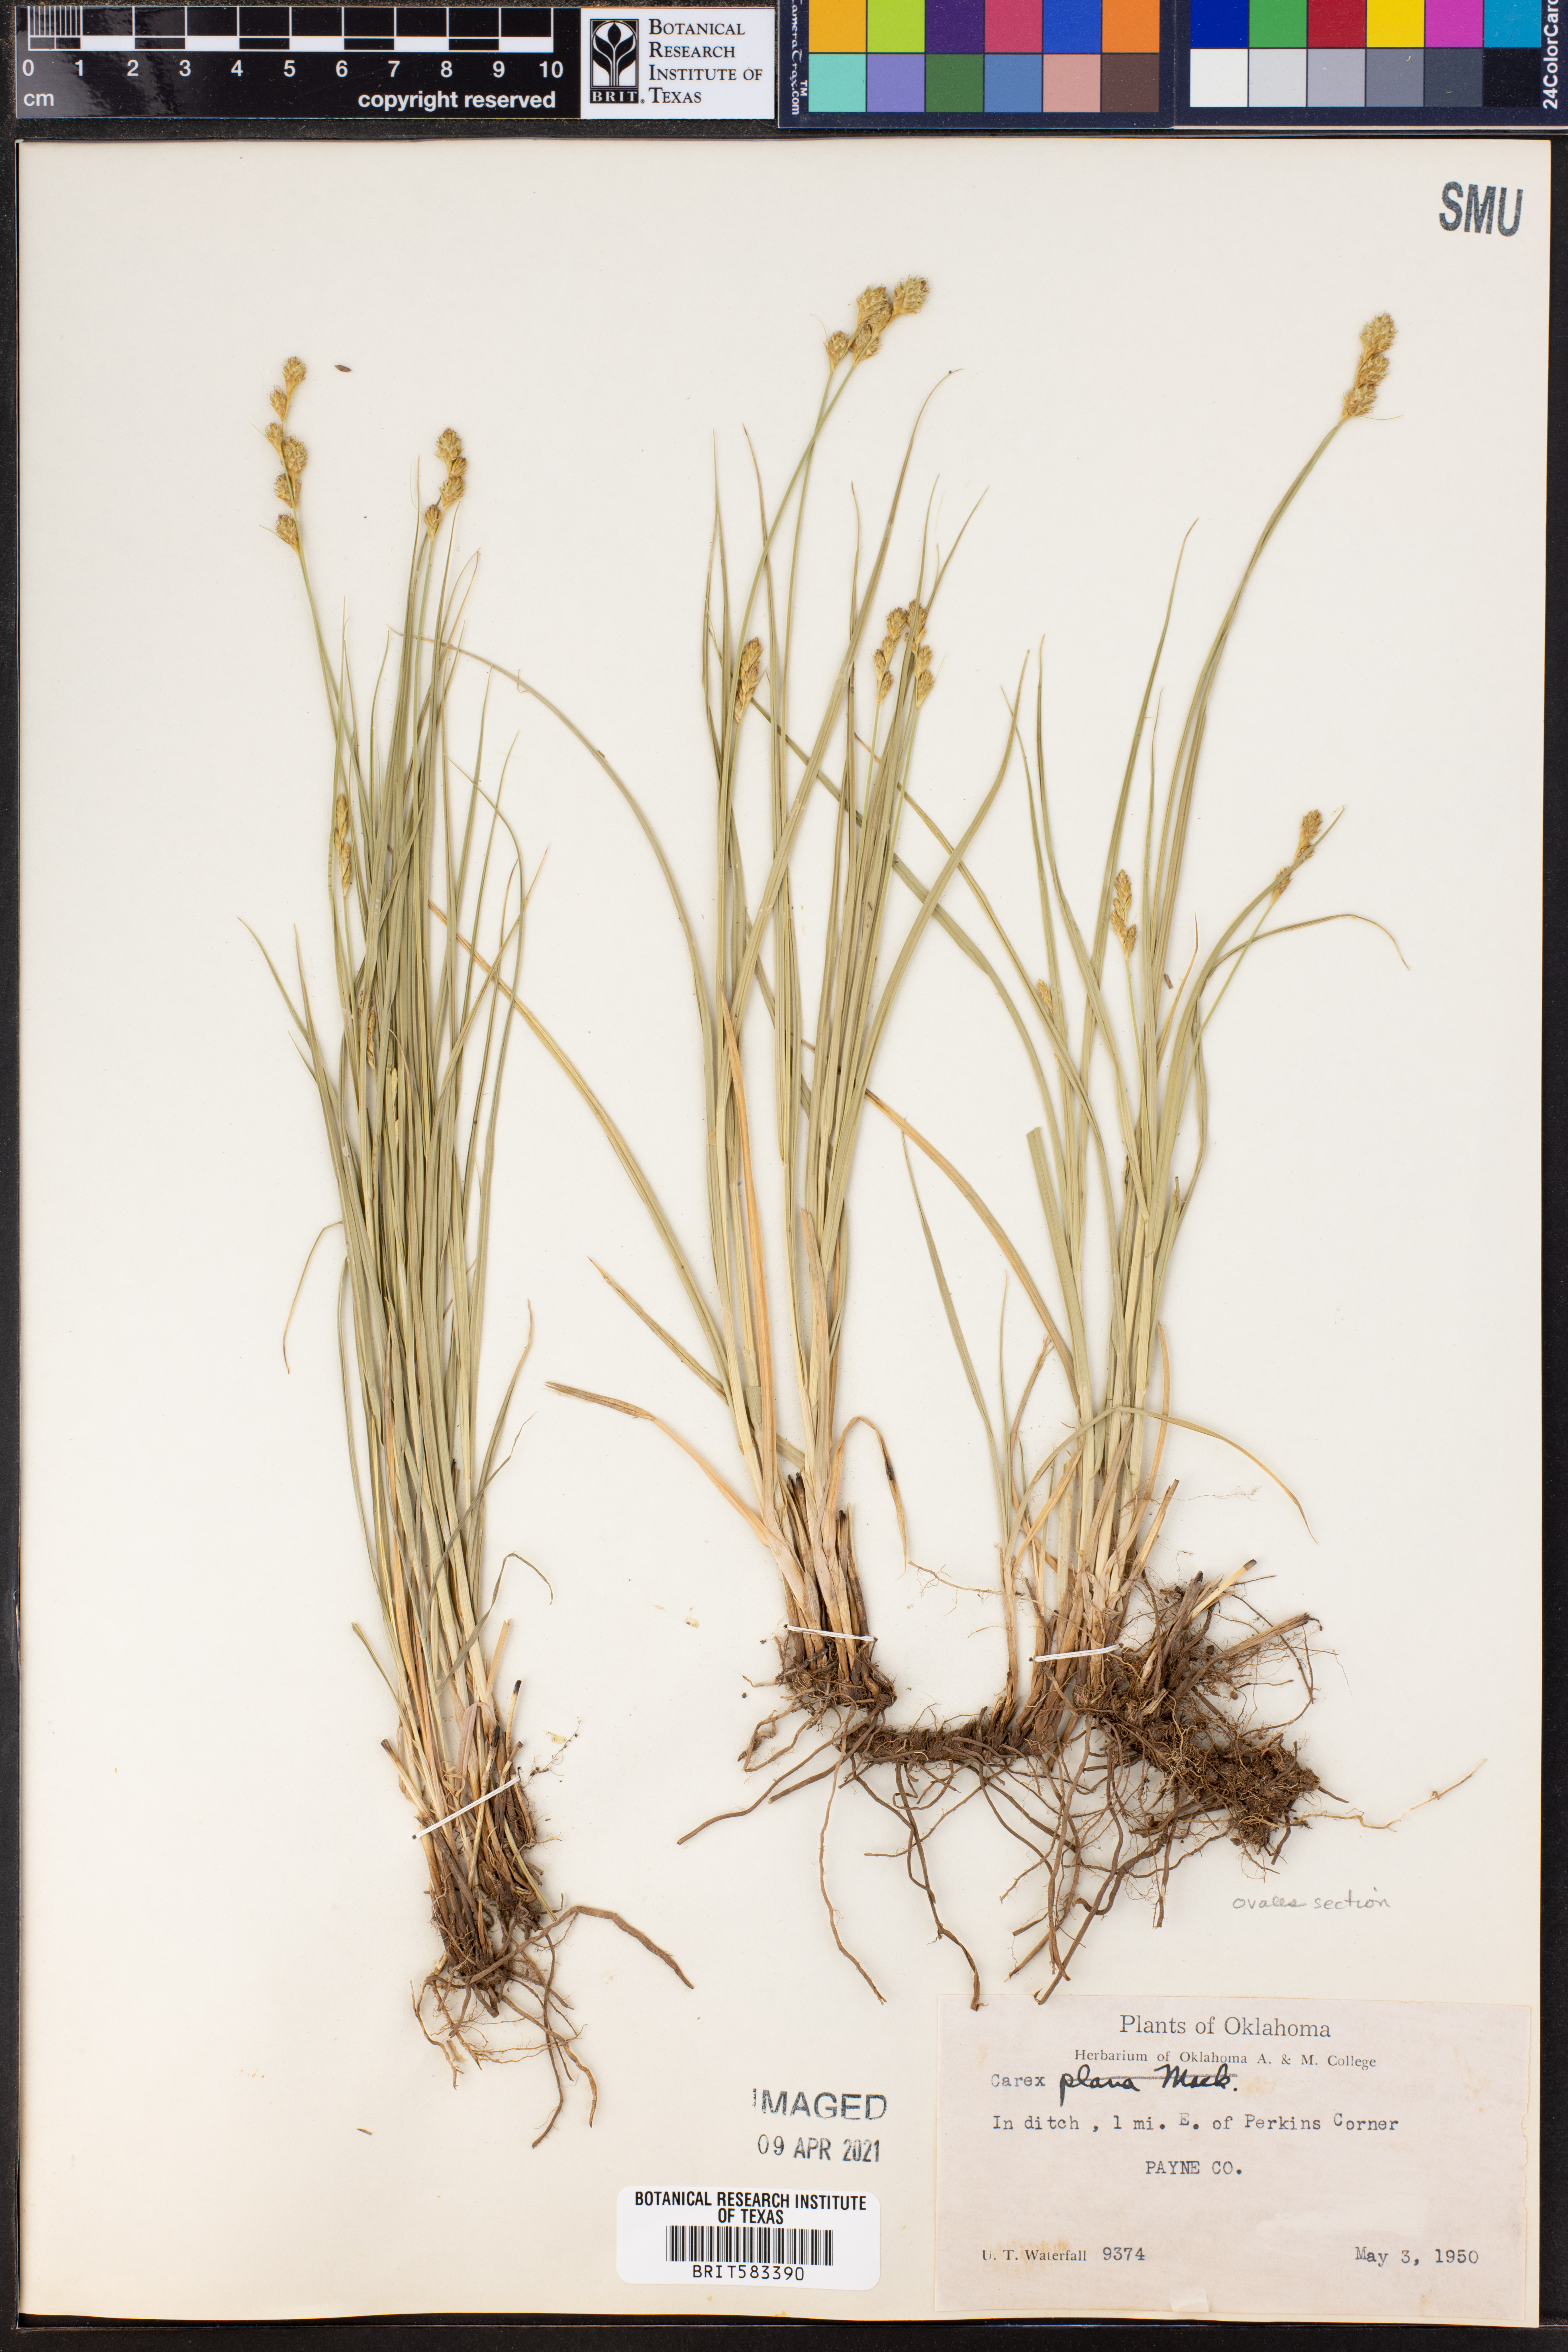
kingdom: Plantae
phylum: Tracheophyta
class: Liliopsida
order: Poales
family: Cyperaceae
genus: Carex
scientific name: Carex
